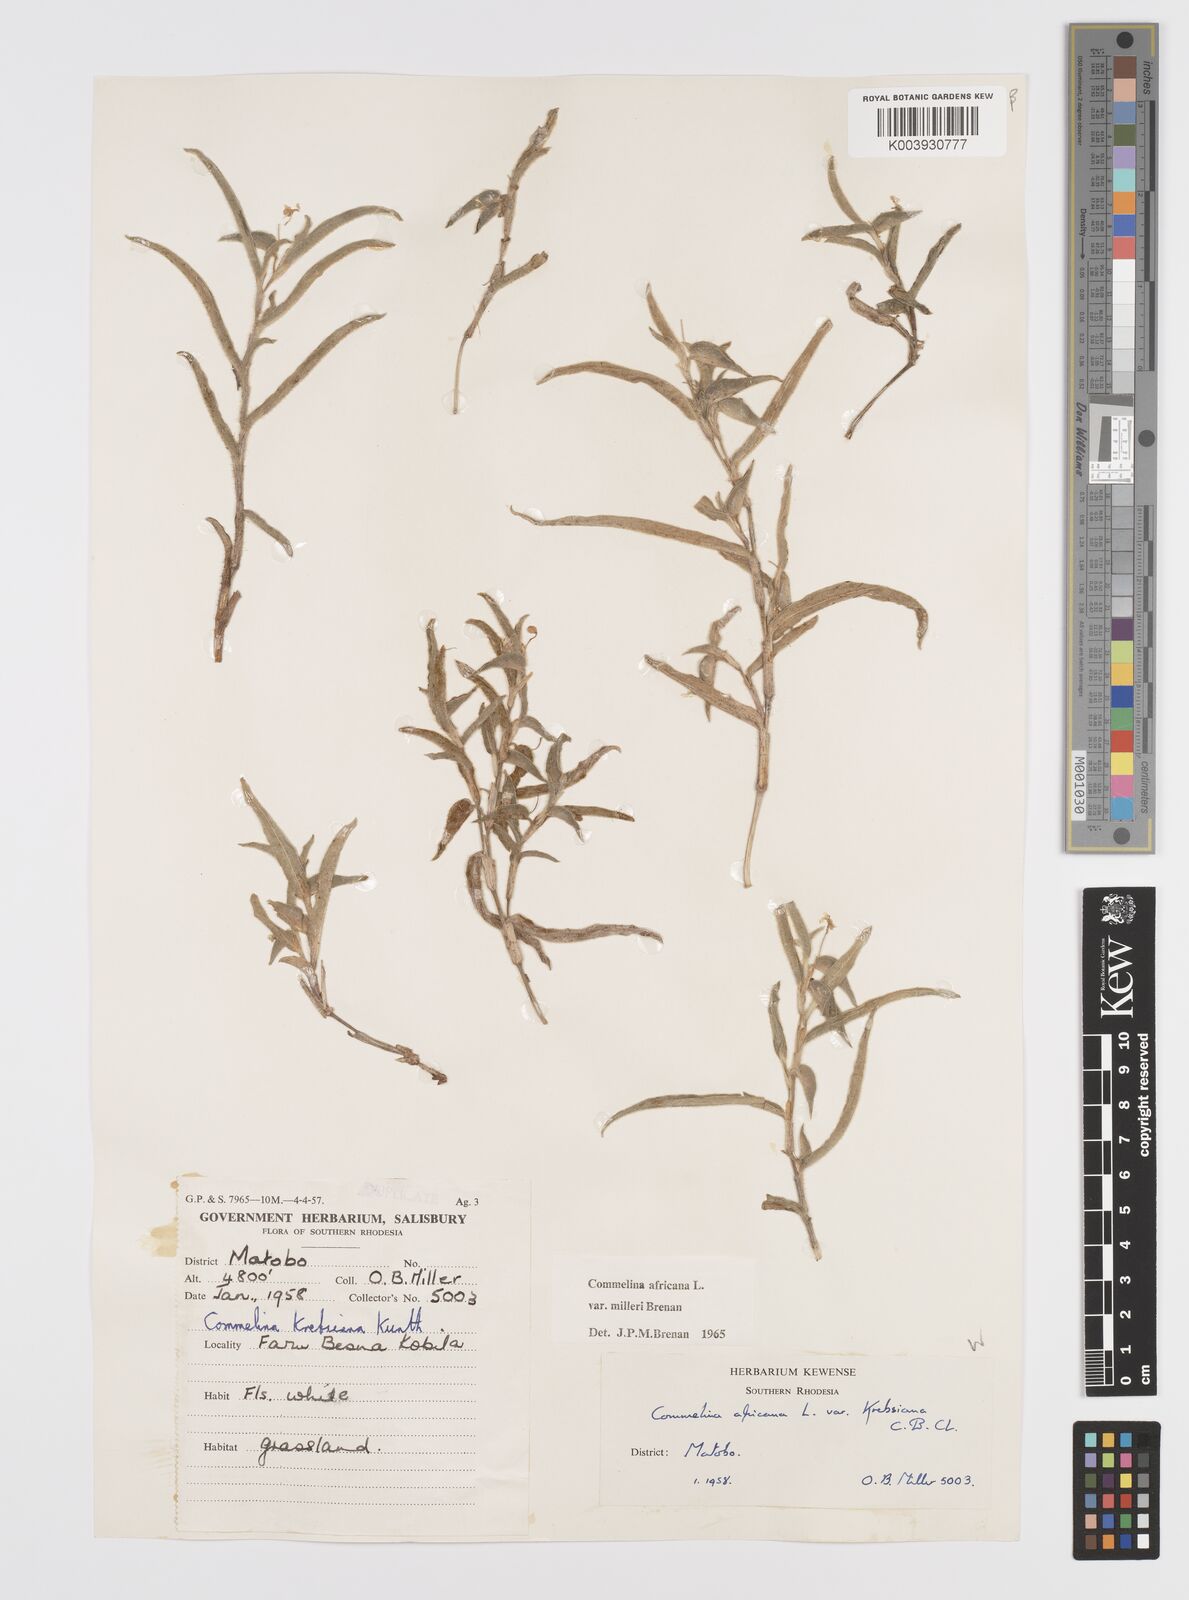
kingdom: Plantae
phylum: Tracheophyta
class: Liliopsida
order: Commelinales
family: Commelinaceae
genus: Commelina
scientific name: Commelina africana
